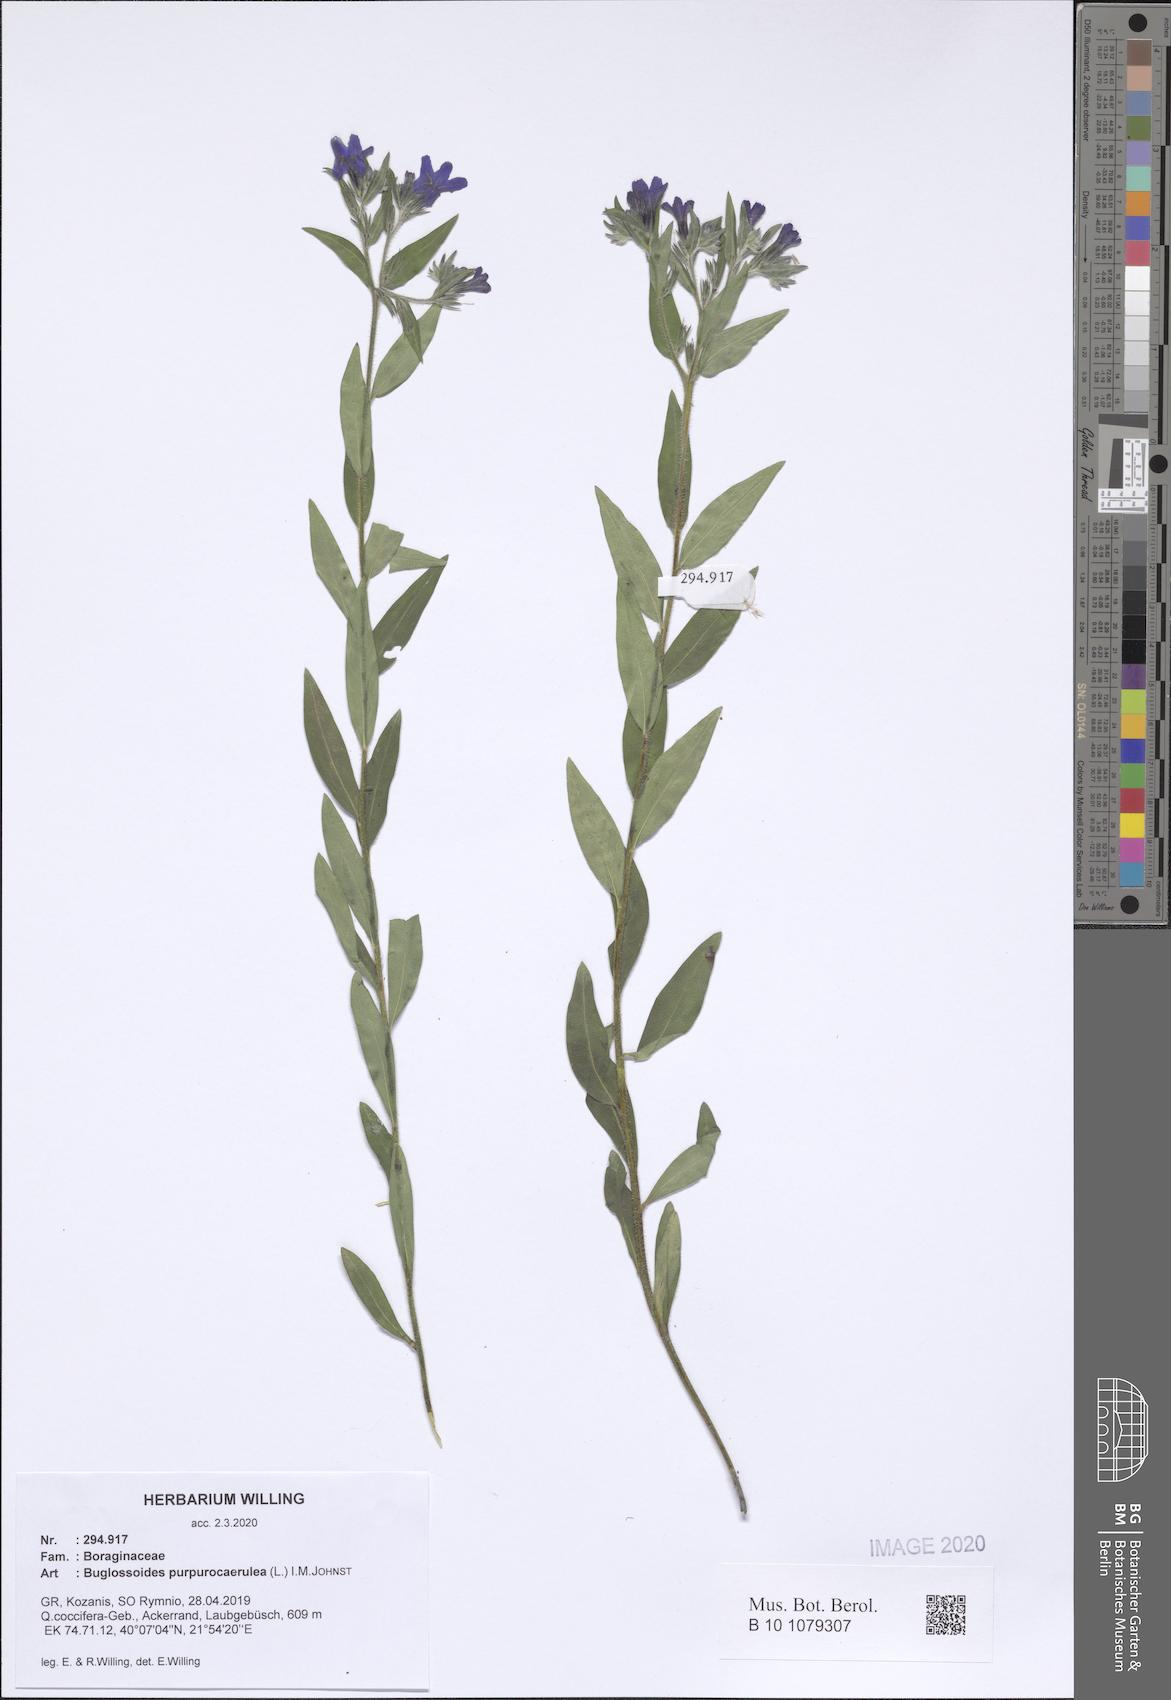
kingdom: Plantae
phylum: Tracheophyta
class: Magnoliopsida
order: Boraginales
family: Boraginaceae
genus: Aegonychon
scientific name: Aegonychon purpurocaeruleum
